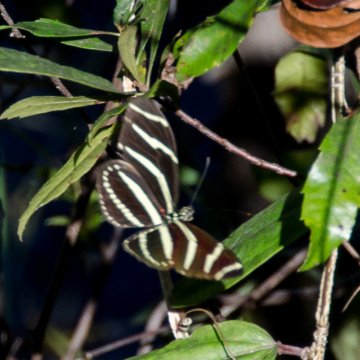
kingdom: Animalia
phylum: Arthropoda
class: Insecta
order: Lepidoptera
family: Nymphalidae
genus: Heliconius
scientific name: Heliconius charithonia
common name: Zebra Longwing
